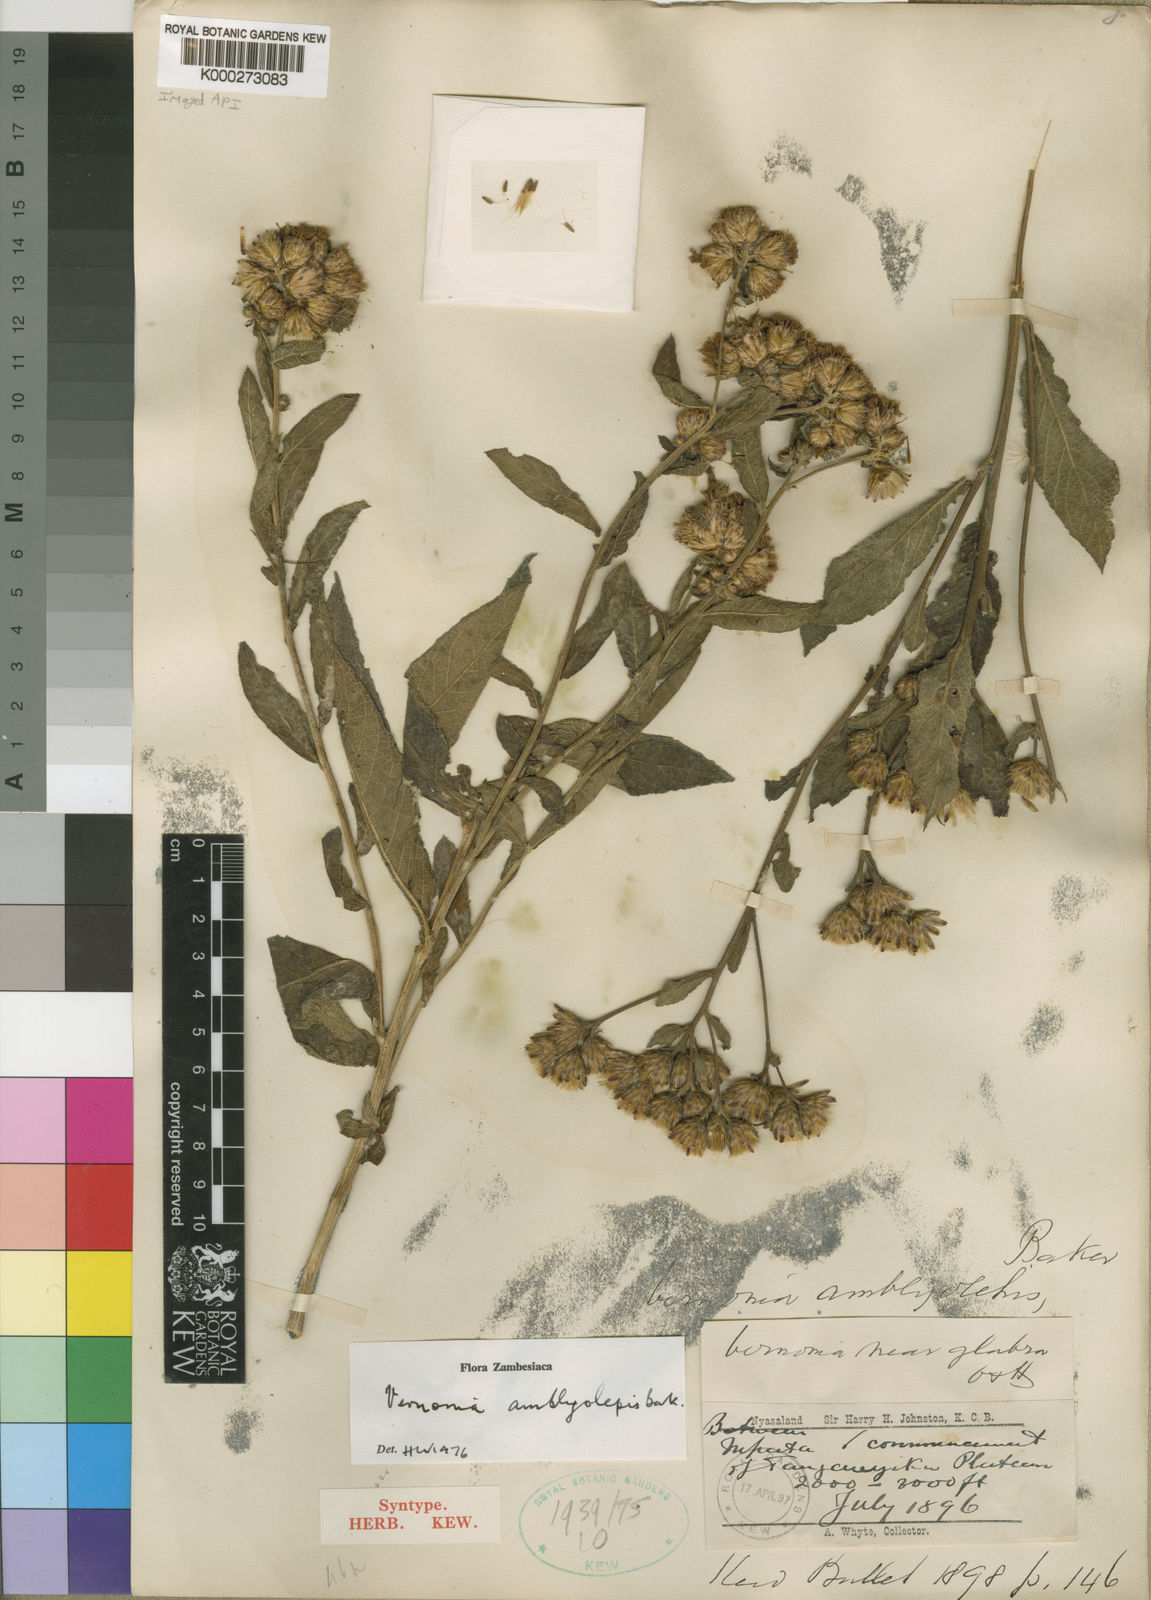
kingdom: Plantae
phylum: Tracheophyta
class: Magnoliopsida
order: Asterales
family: Asteraceae
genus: Nothovernonia
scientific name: Nothovernonia amblyolepis
